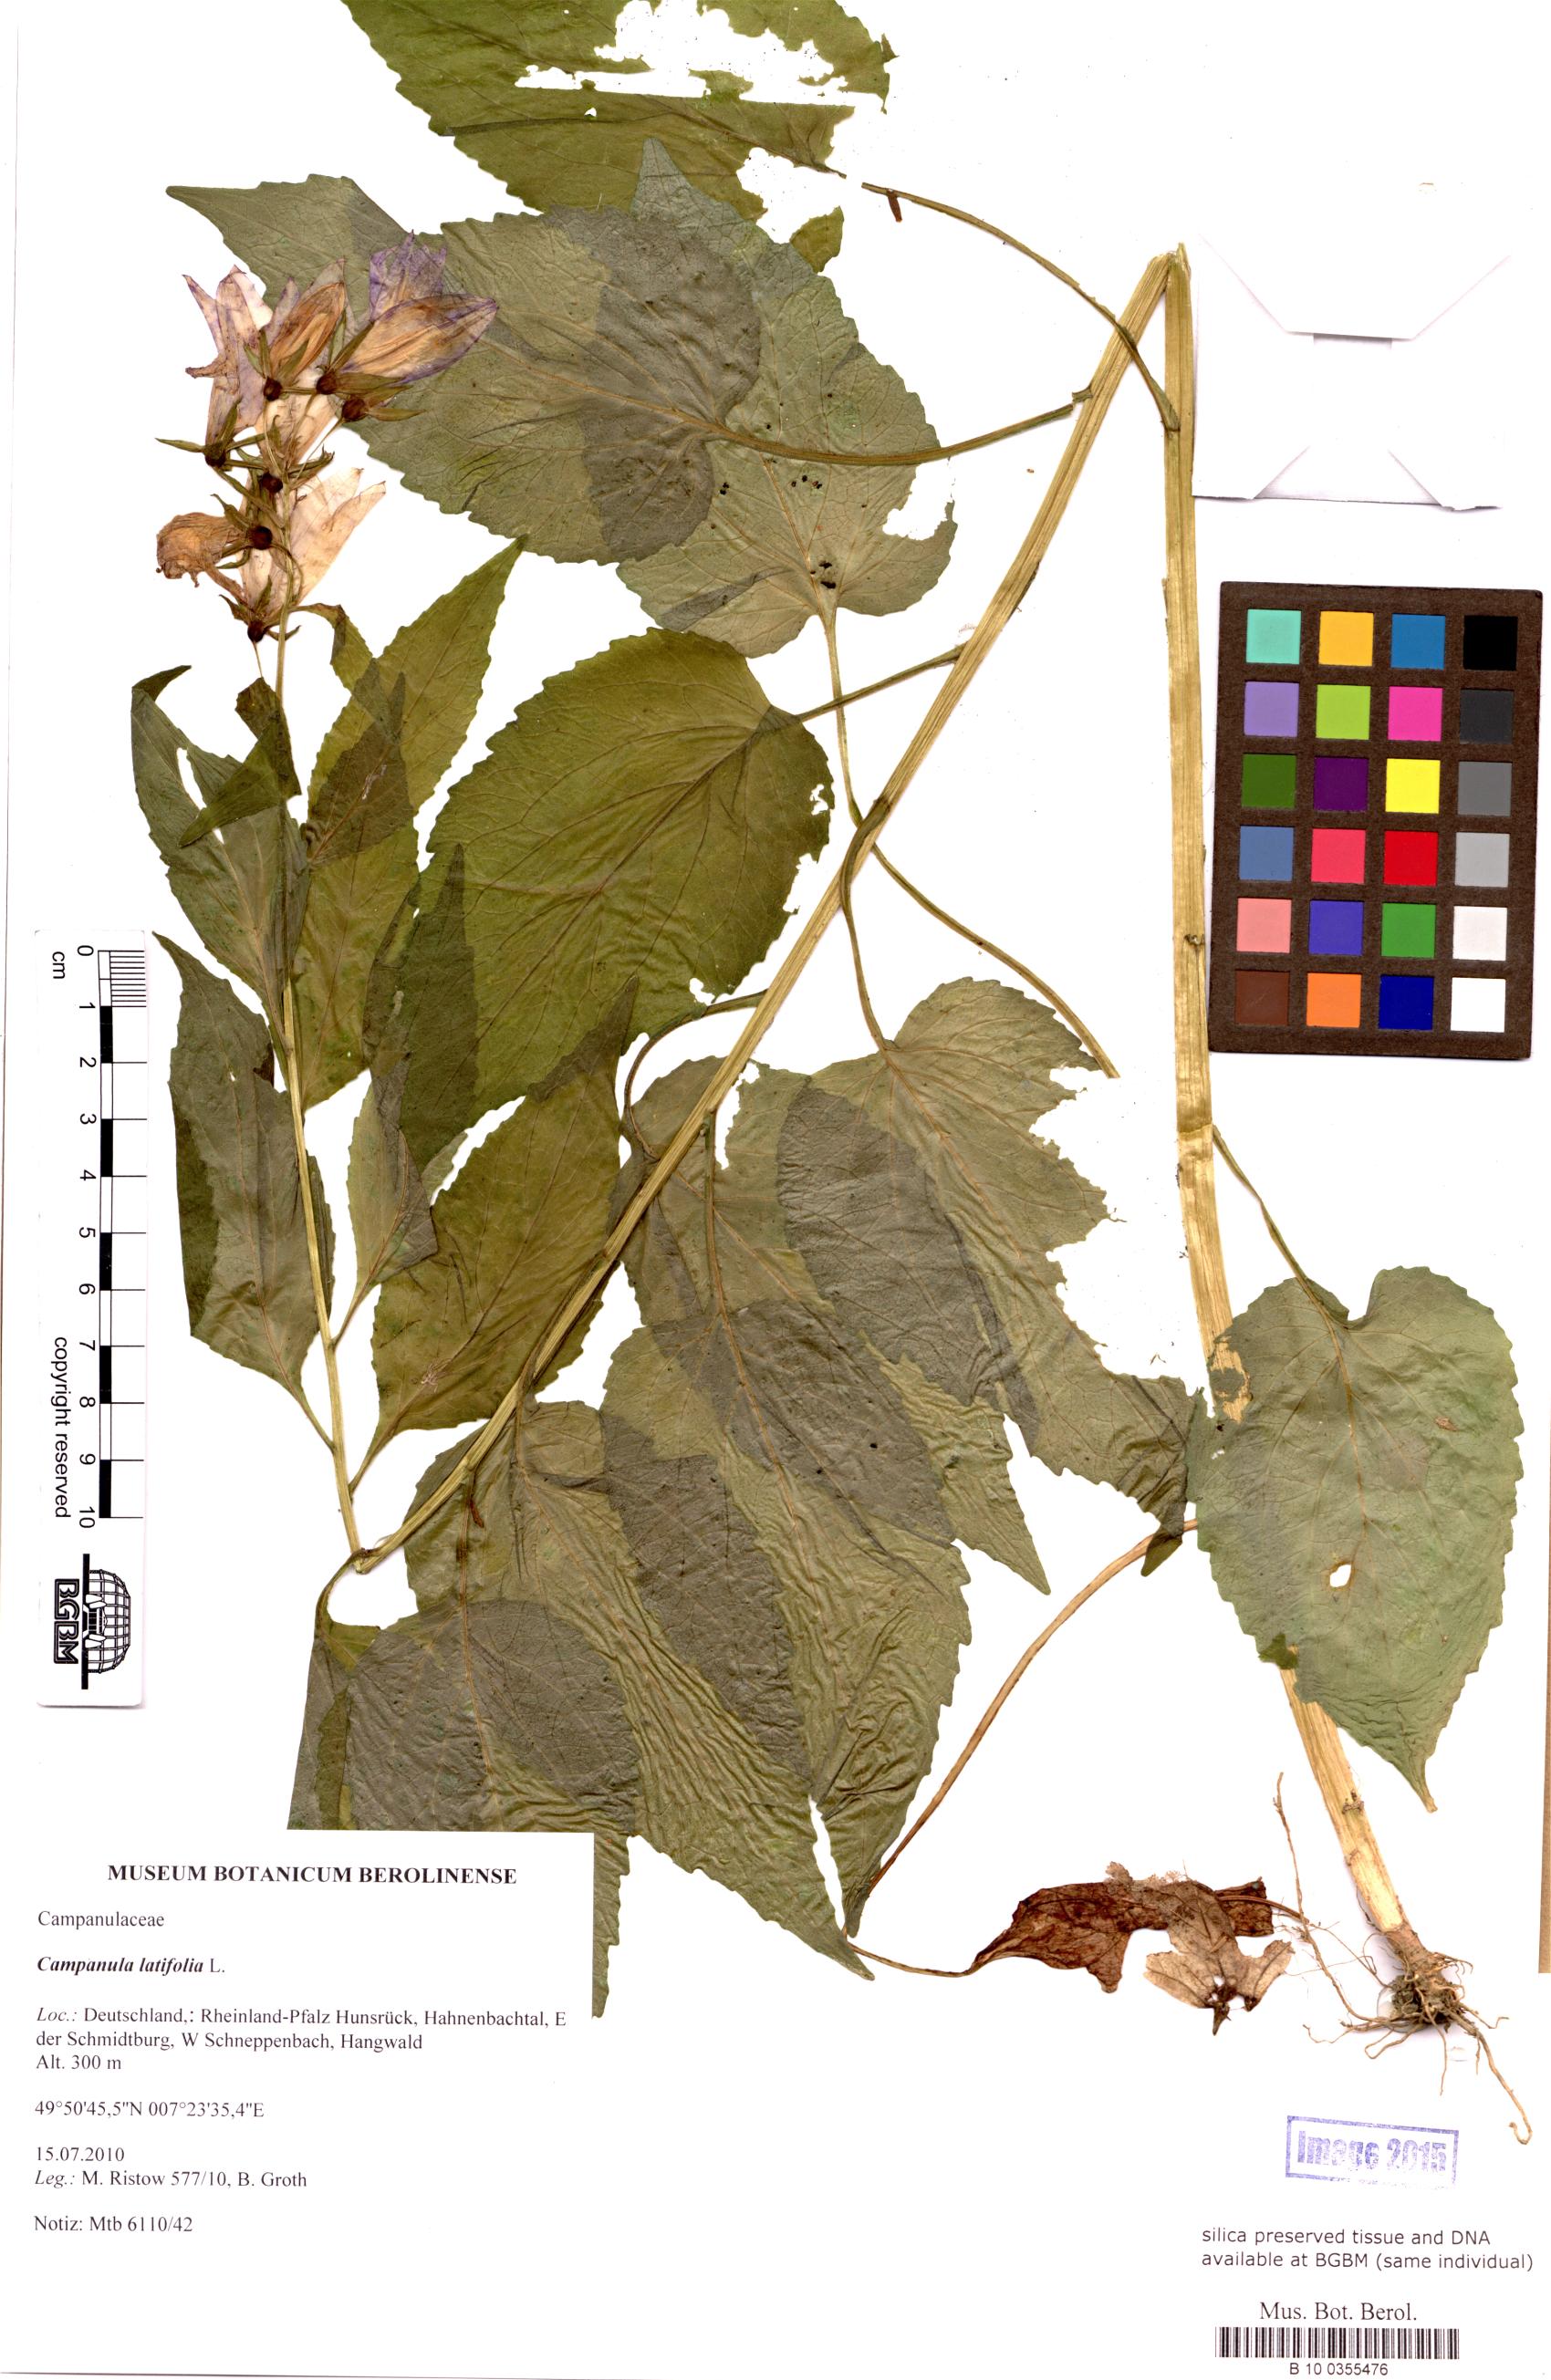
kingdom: Plantae
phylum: Tracheophyta
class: Magnoliopsida
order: Asterales
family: Campanulaceae
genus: Campanula
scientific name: Campanula latifolia
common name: Giant bellflower
